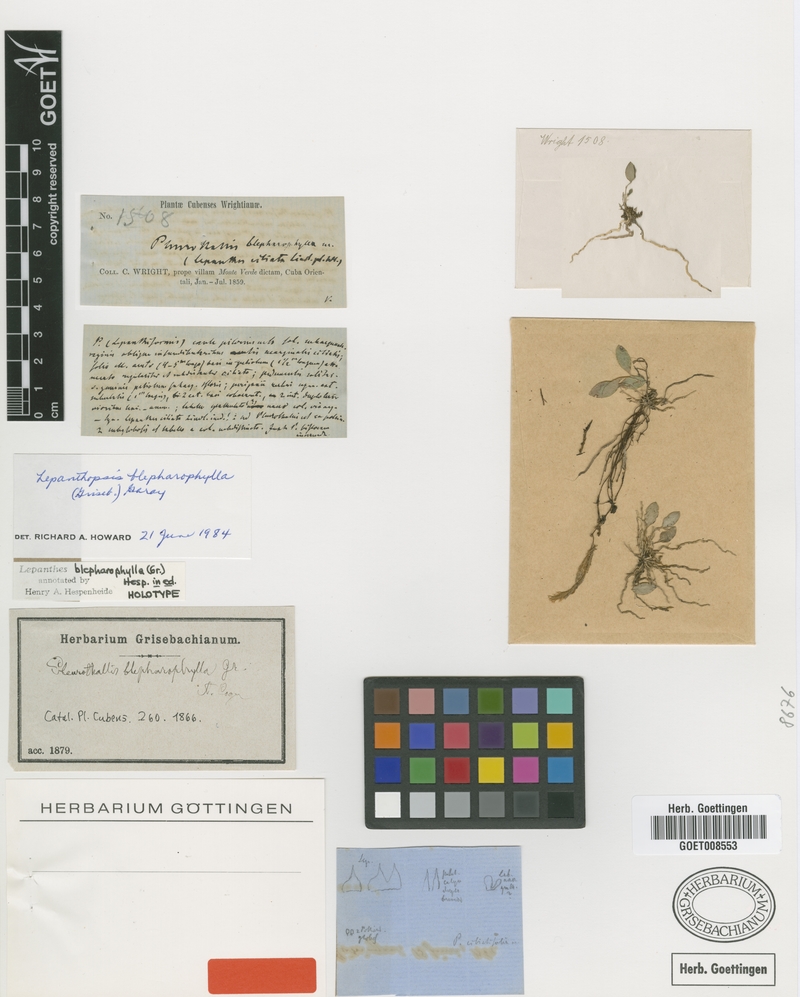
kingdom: Plantae
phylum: Tracheophyta
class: Liliopsida
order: Asparagales
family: Orchidaceae
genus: Lepanthes
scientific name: Lepanthes blepharophylla
